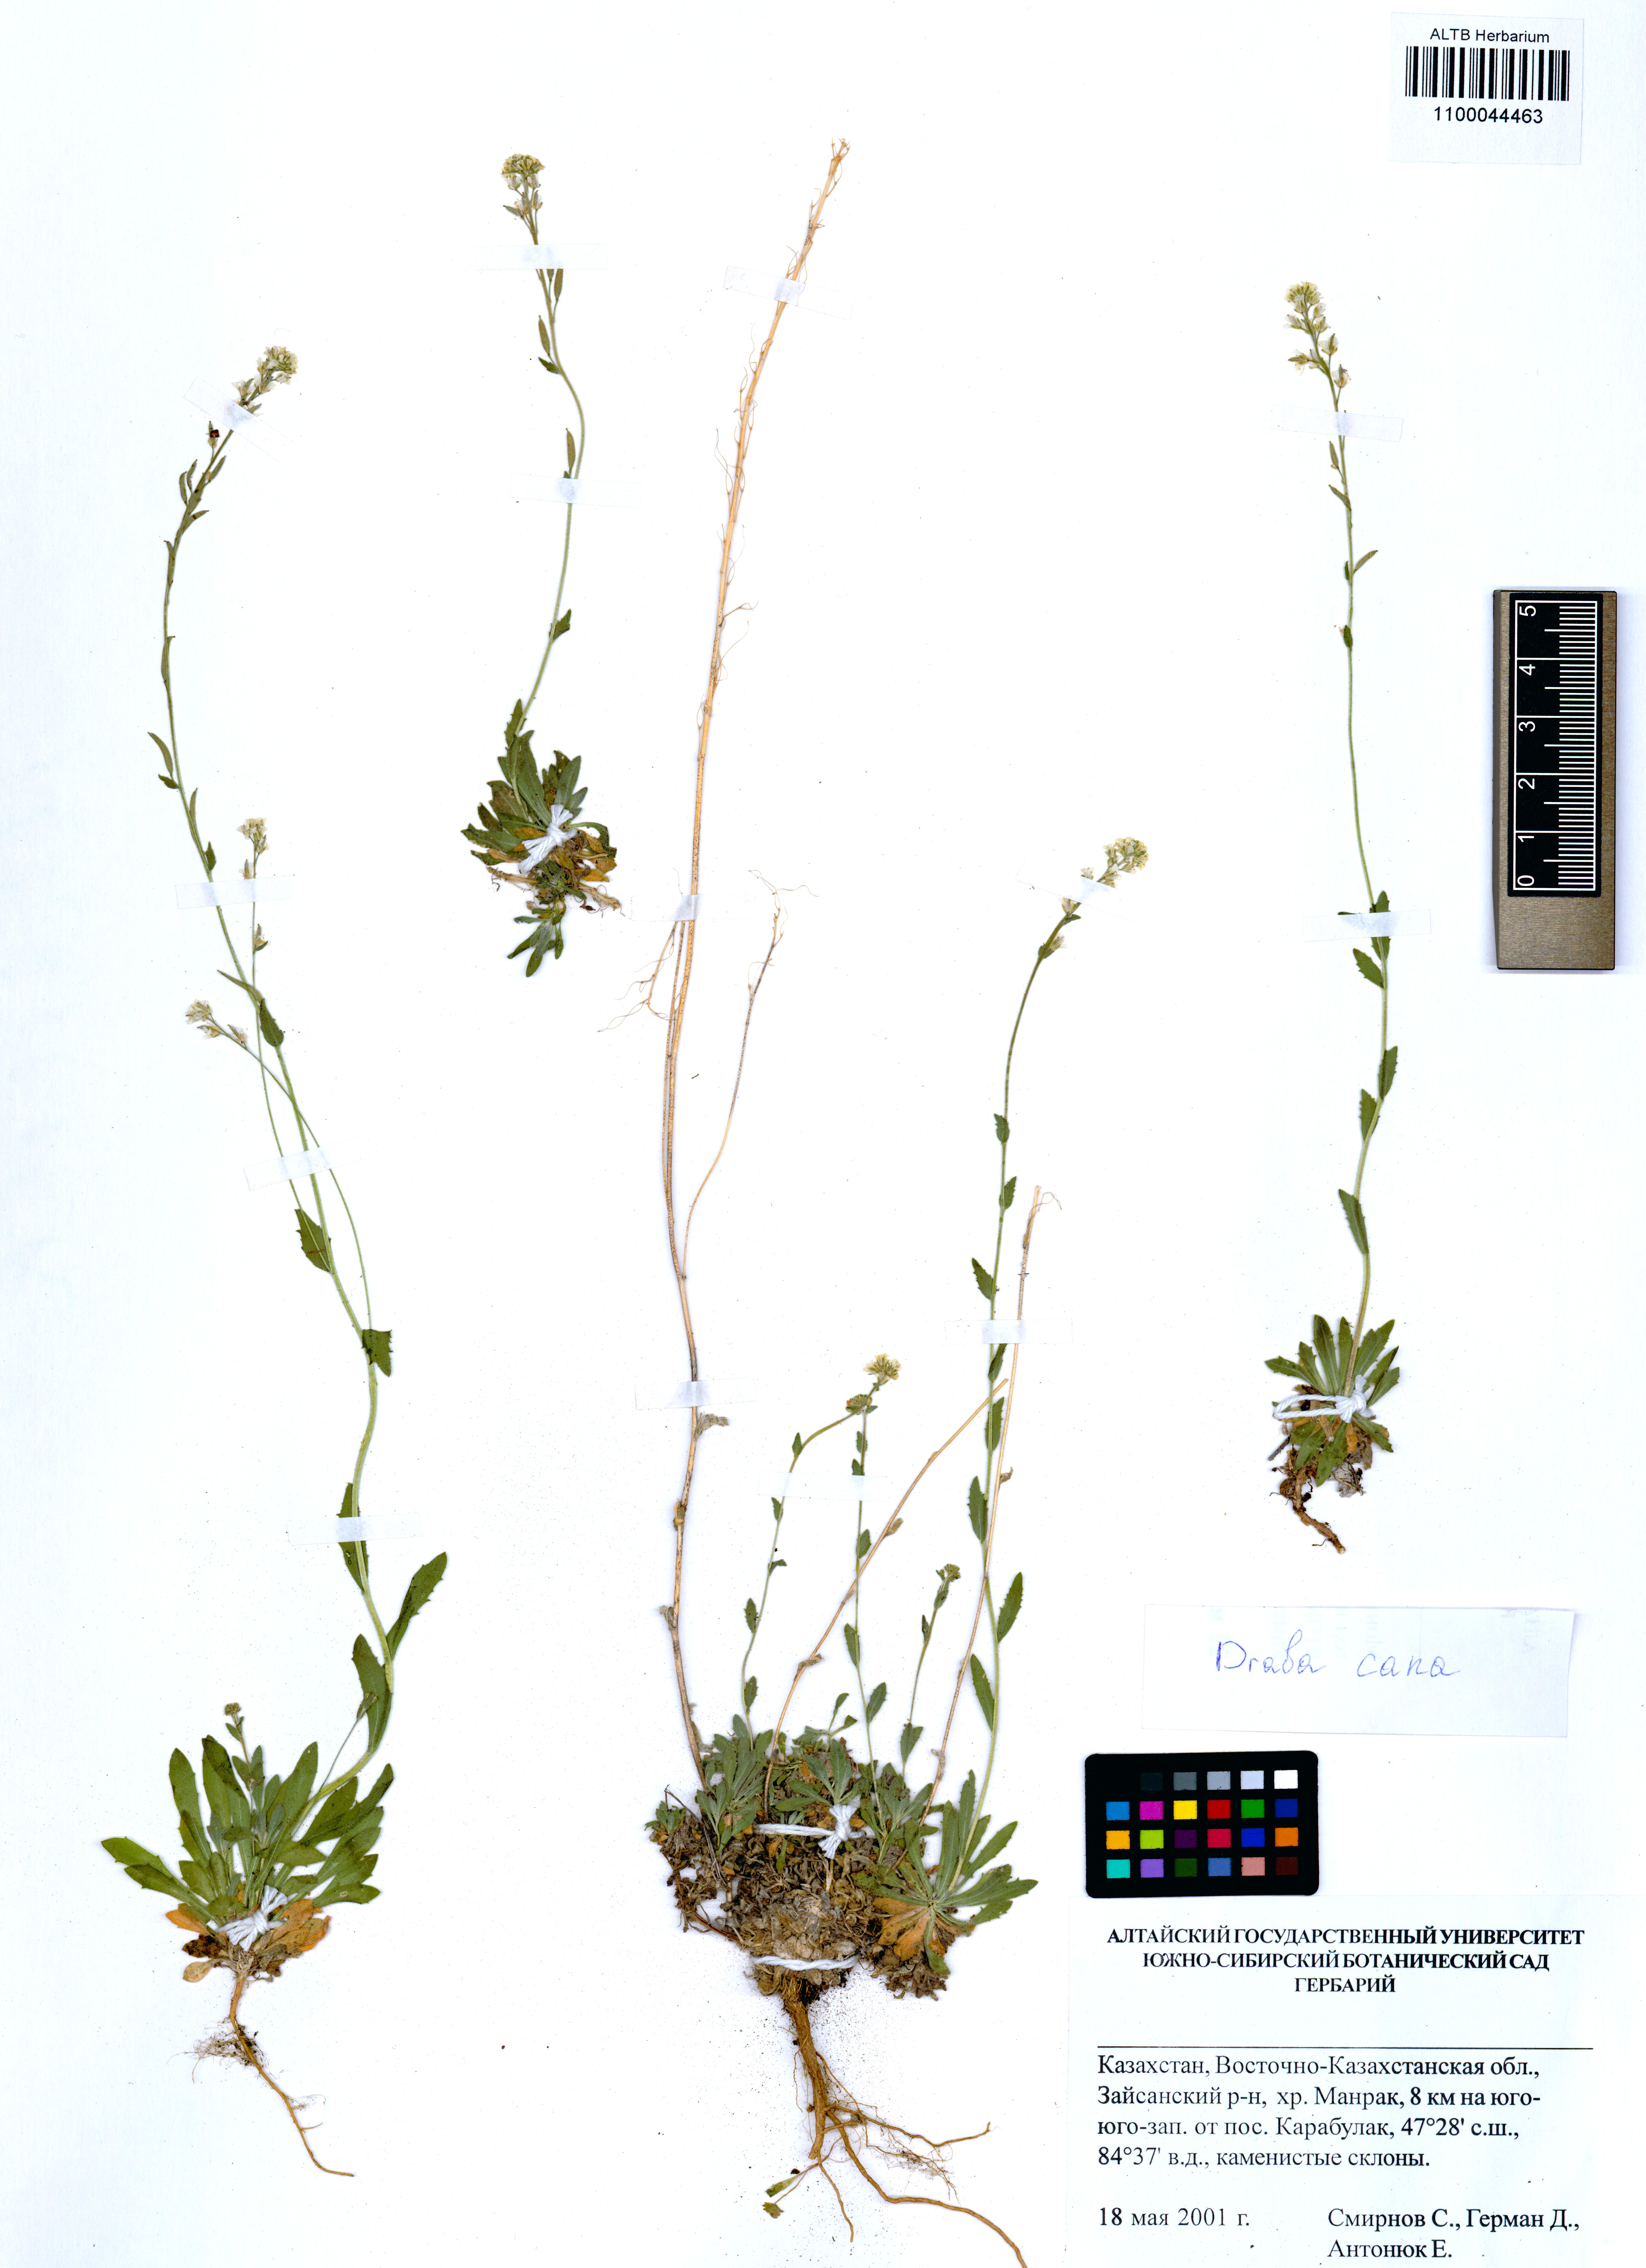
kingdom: Plantae
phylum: Tracheophyta
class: Magnoliopsida
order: Brassicales
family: Brassicaceae
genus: Draba
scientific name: Draba cana
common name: Hoary draba
